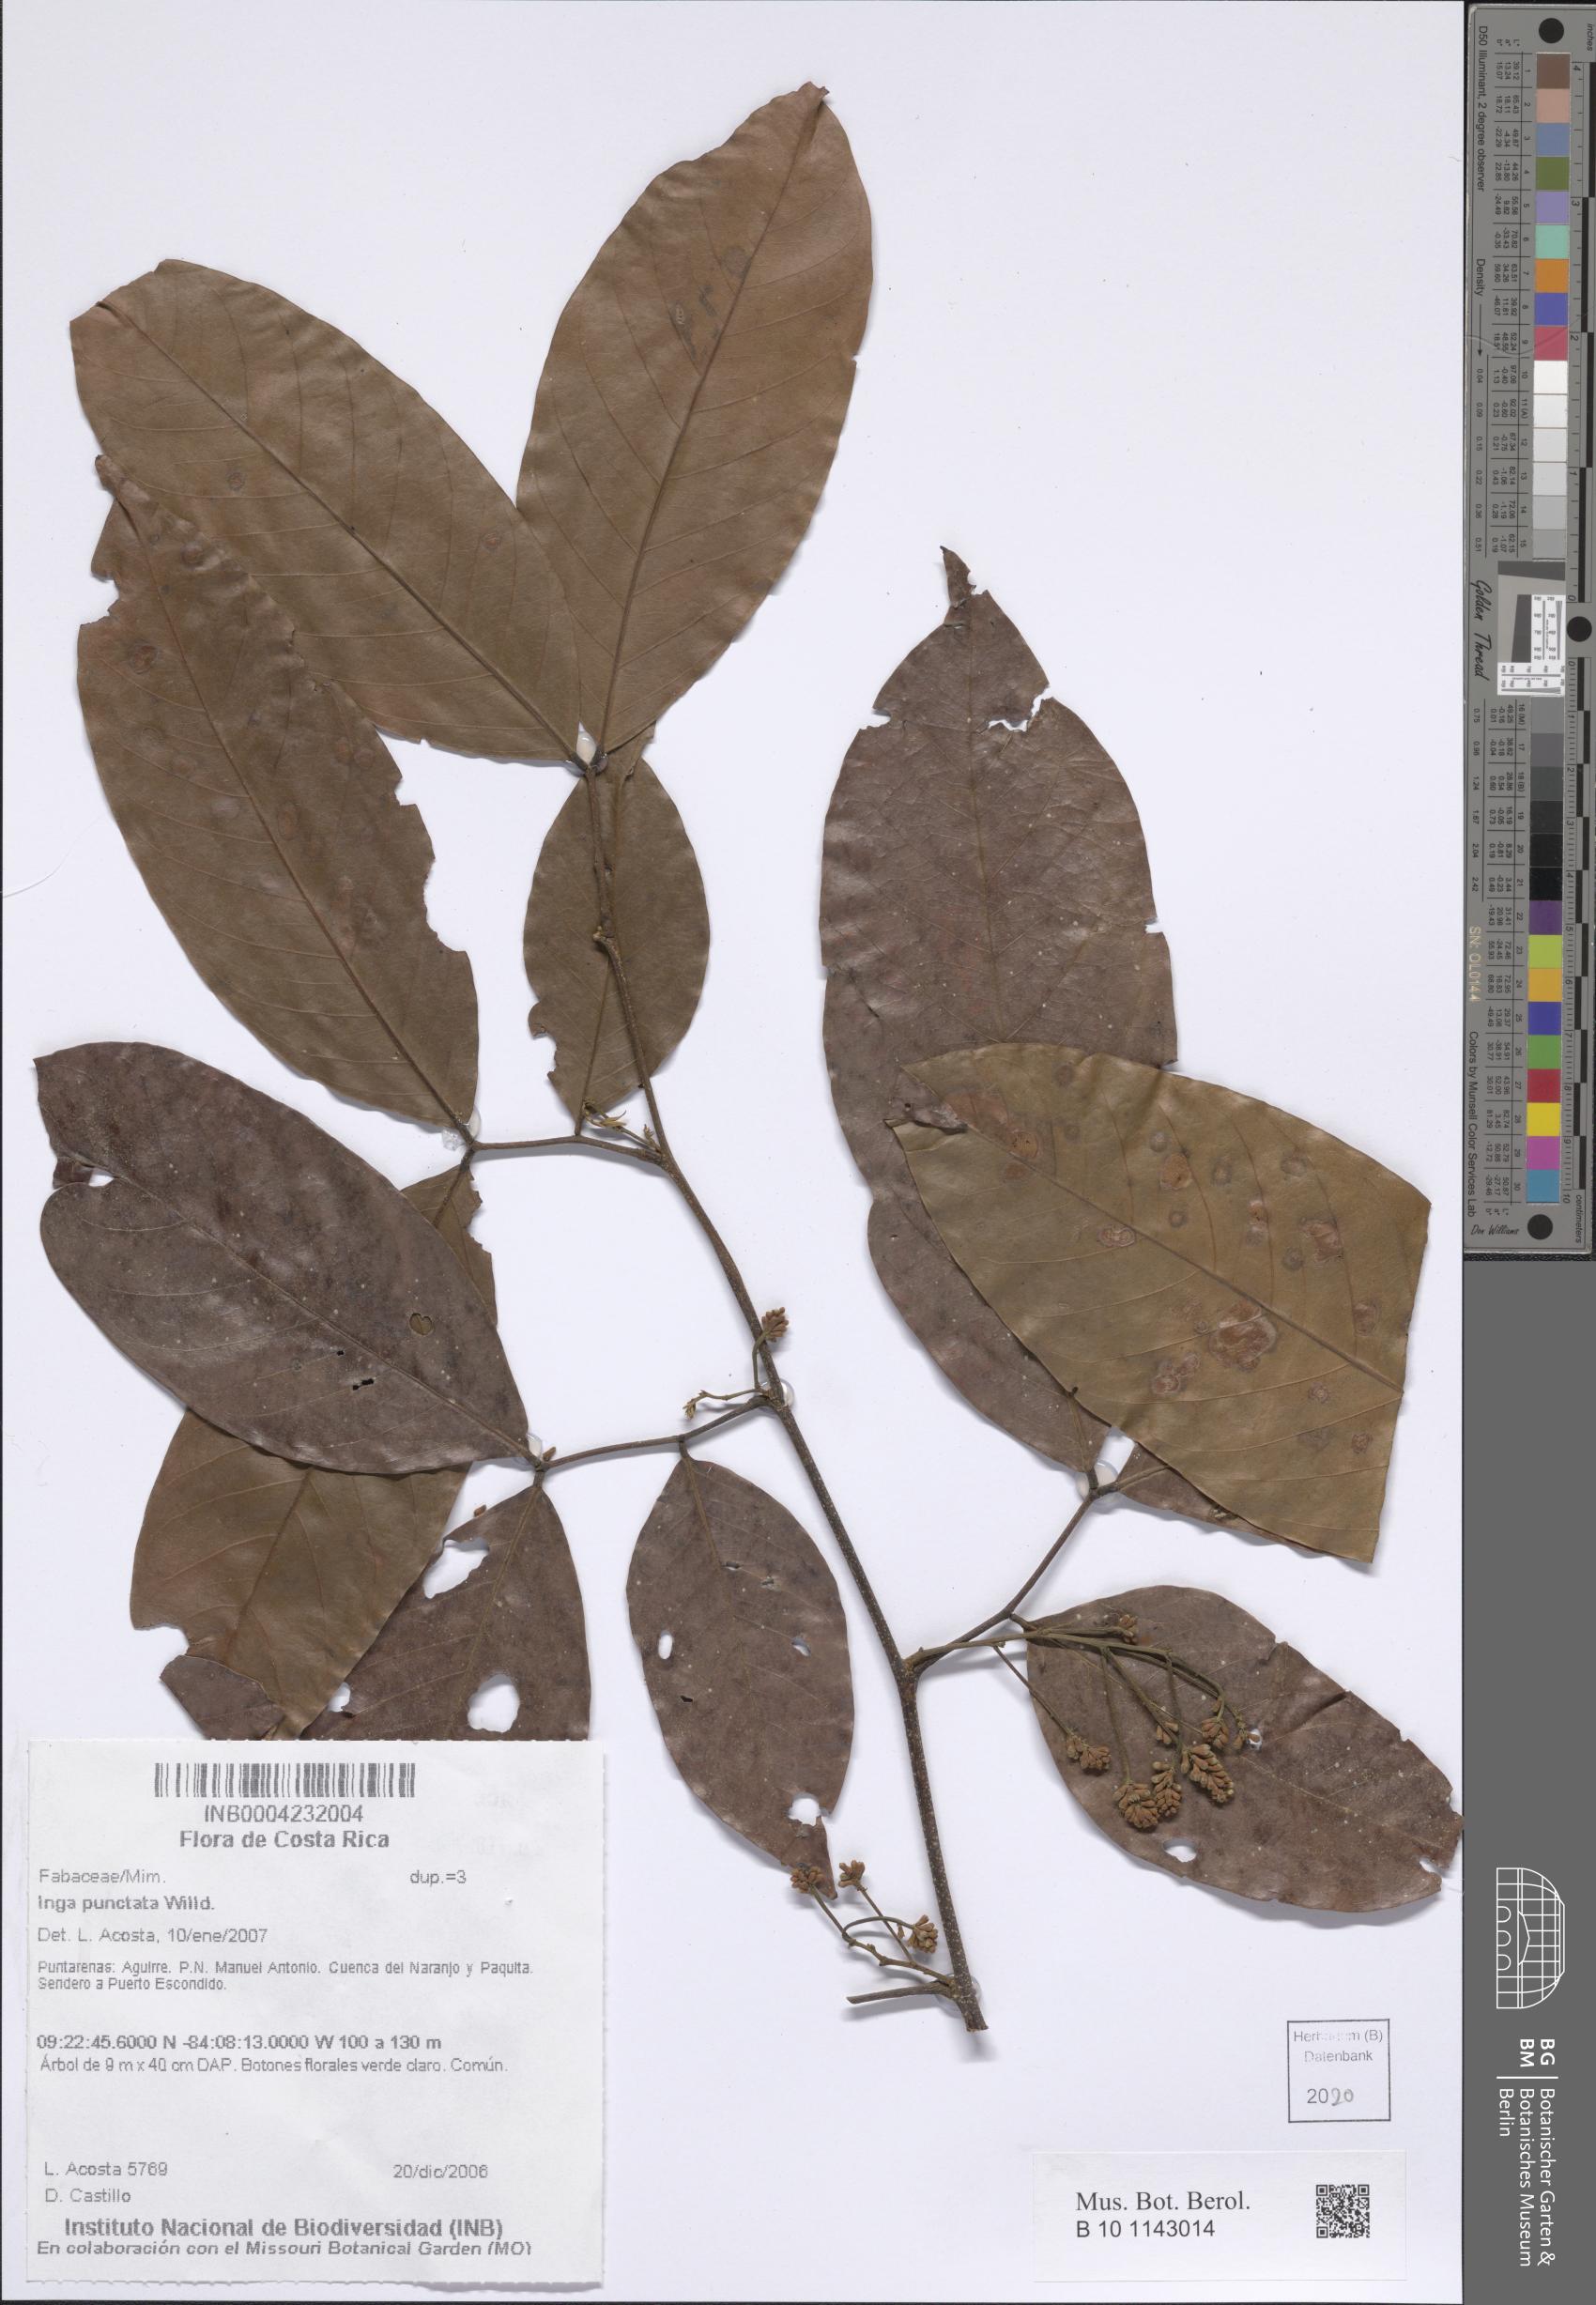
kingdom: Plantae
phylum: Tracheophyta
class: Magnoliopsida
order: Fabales
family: Fabaceae
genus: Inga
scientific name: Inga punctata
